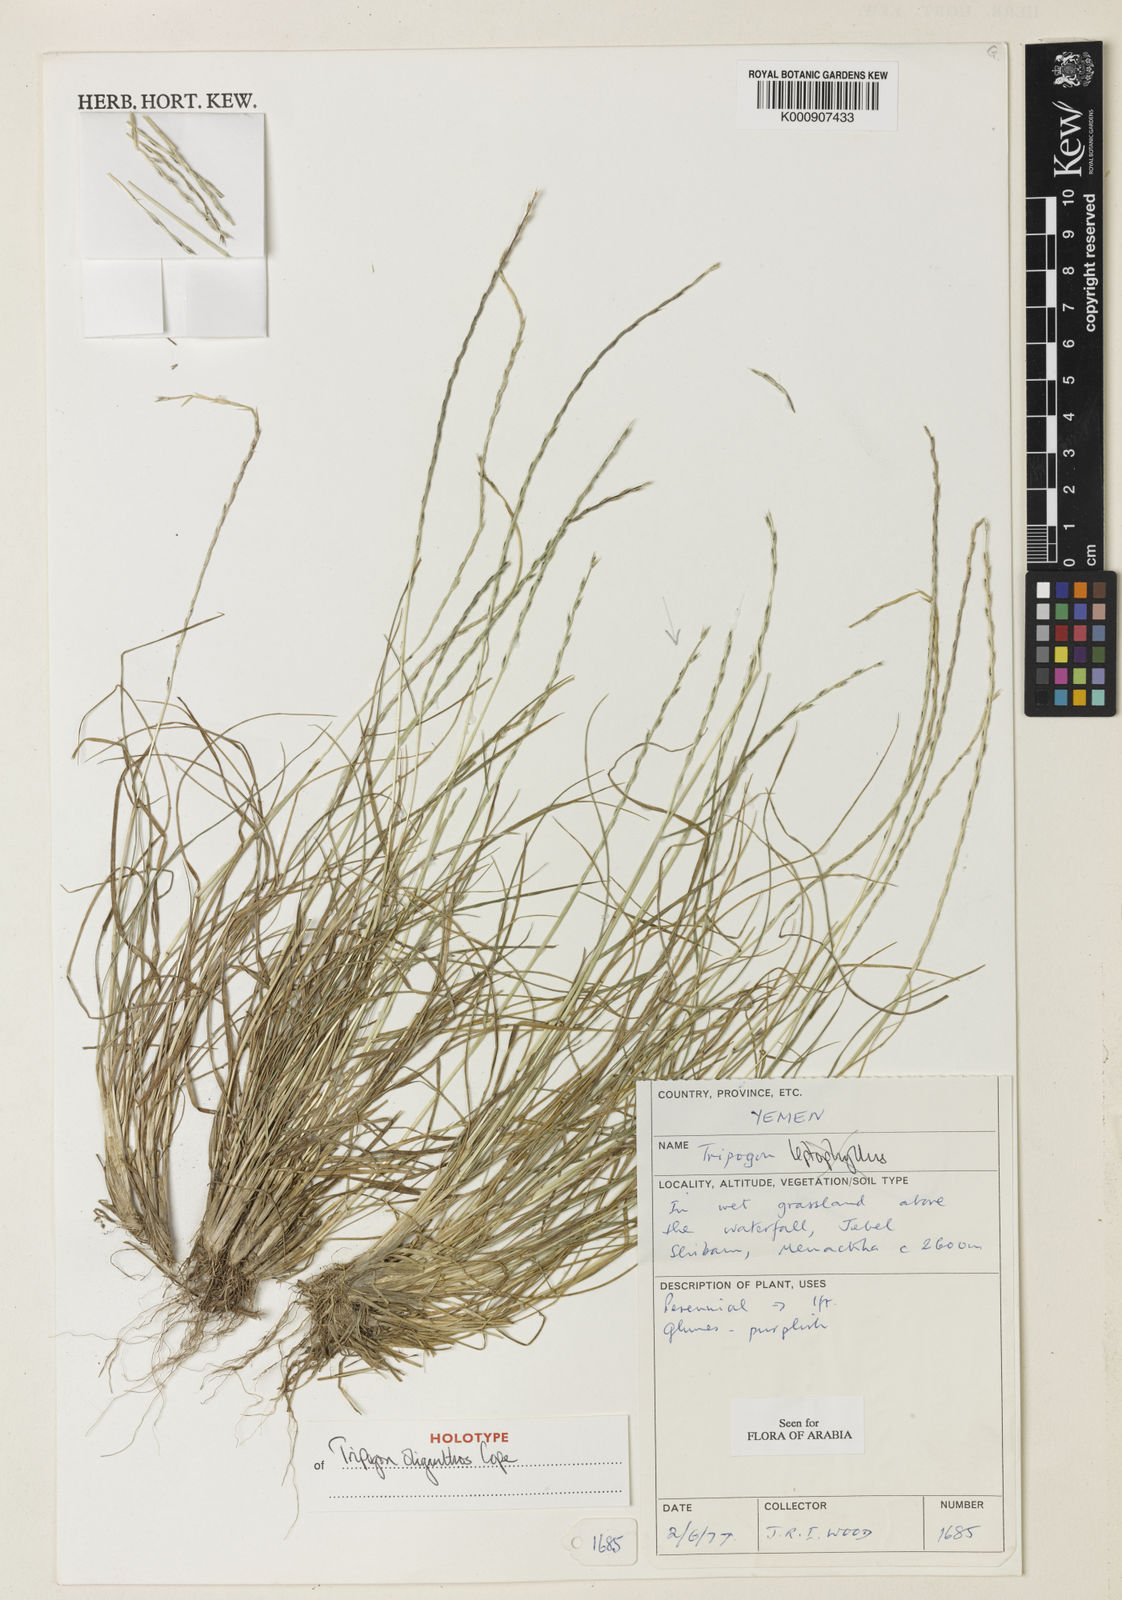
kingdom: Plantae
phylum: Tracheophyta
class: Liliopsida
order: Poales
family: Poaceae
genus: Tripogon
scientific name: Tripogon oliganthos
